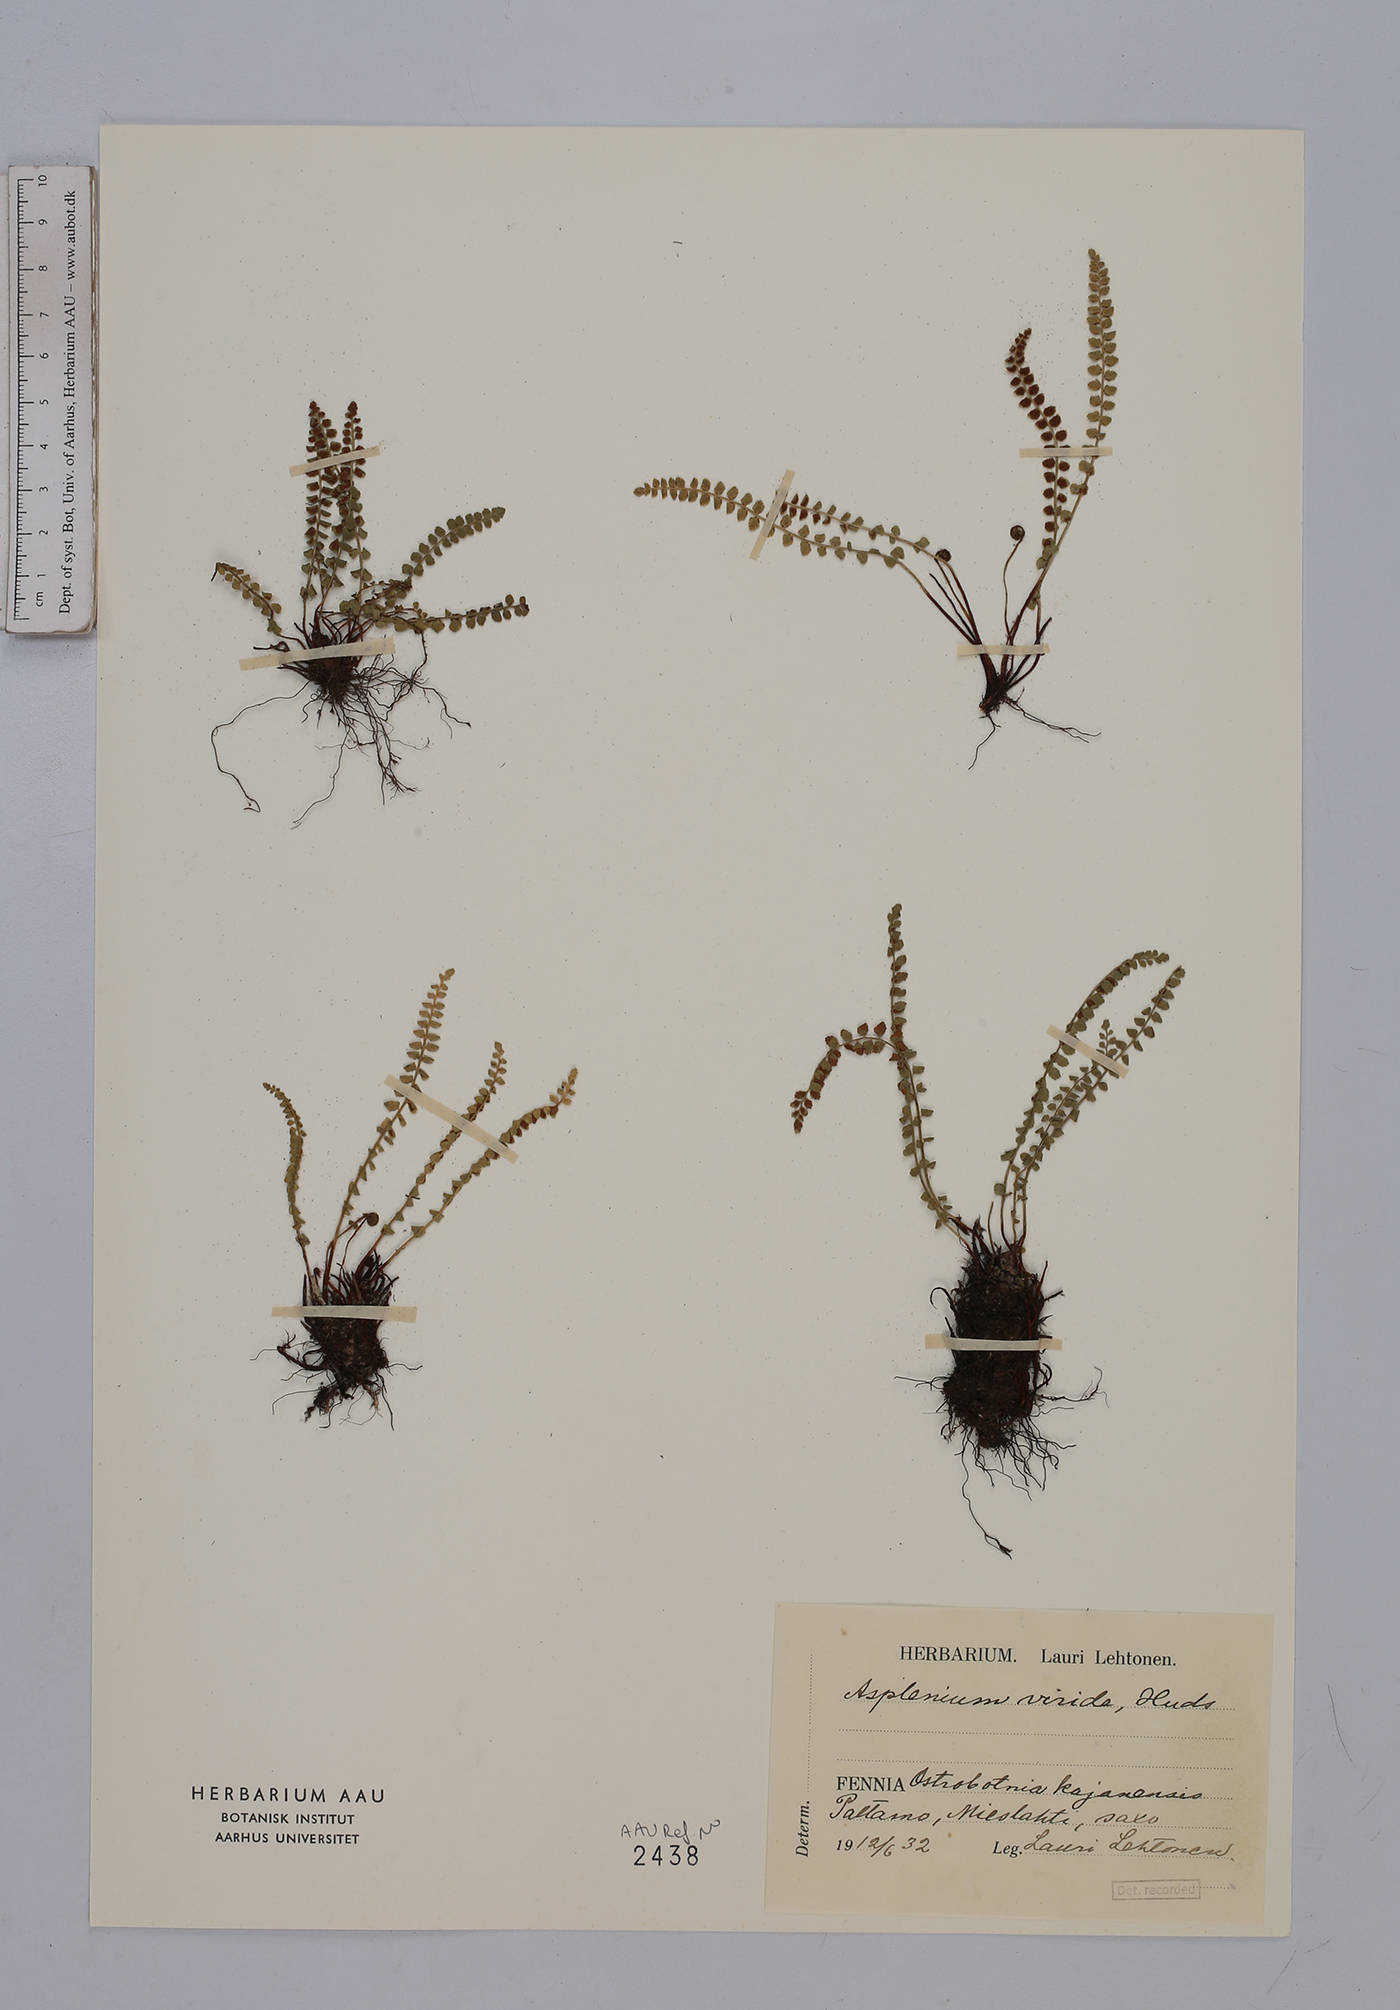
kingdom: Plantae
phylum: Tracheophyta
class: Polypodiopsida
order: Polypodiales
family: Aspleniaceae
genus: Asplenium
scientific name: Asplenium viride
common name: Green spleenwort
